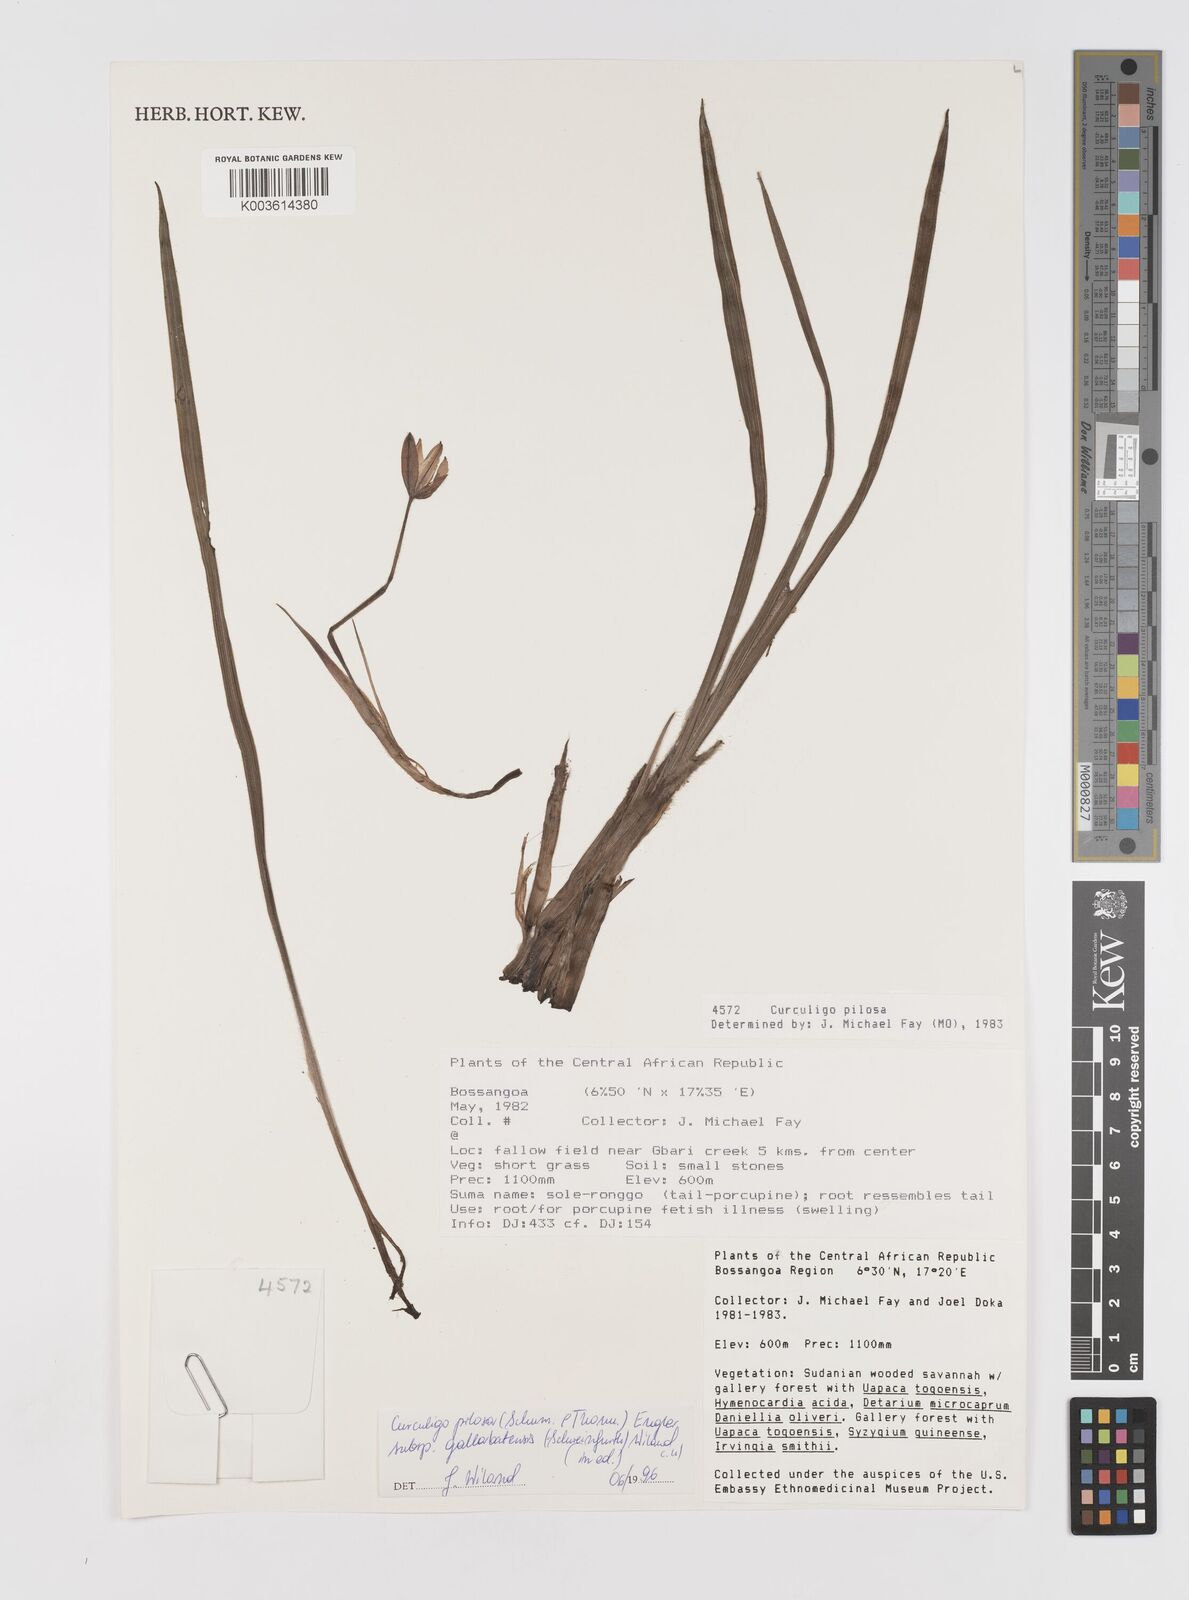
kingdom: Plantae
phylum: Tracheophyta
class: Liliopsida
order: Asparagales
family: Hypoxidaceae
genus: Curculigo
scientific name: Curculigo pilosa
